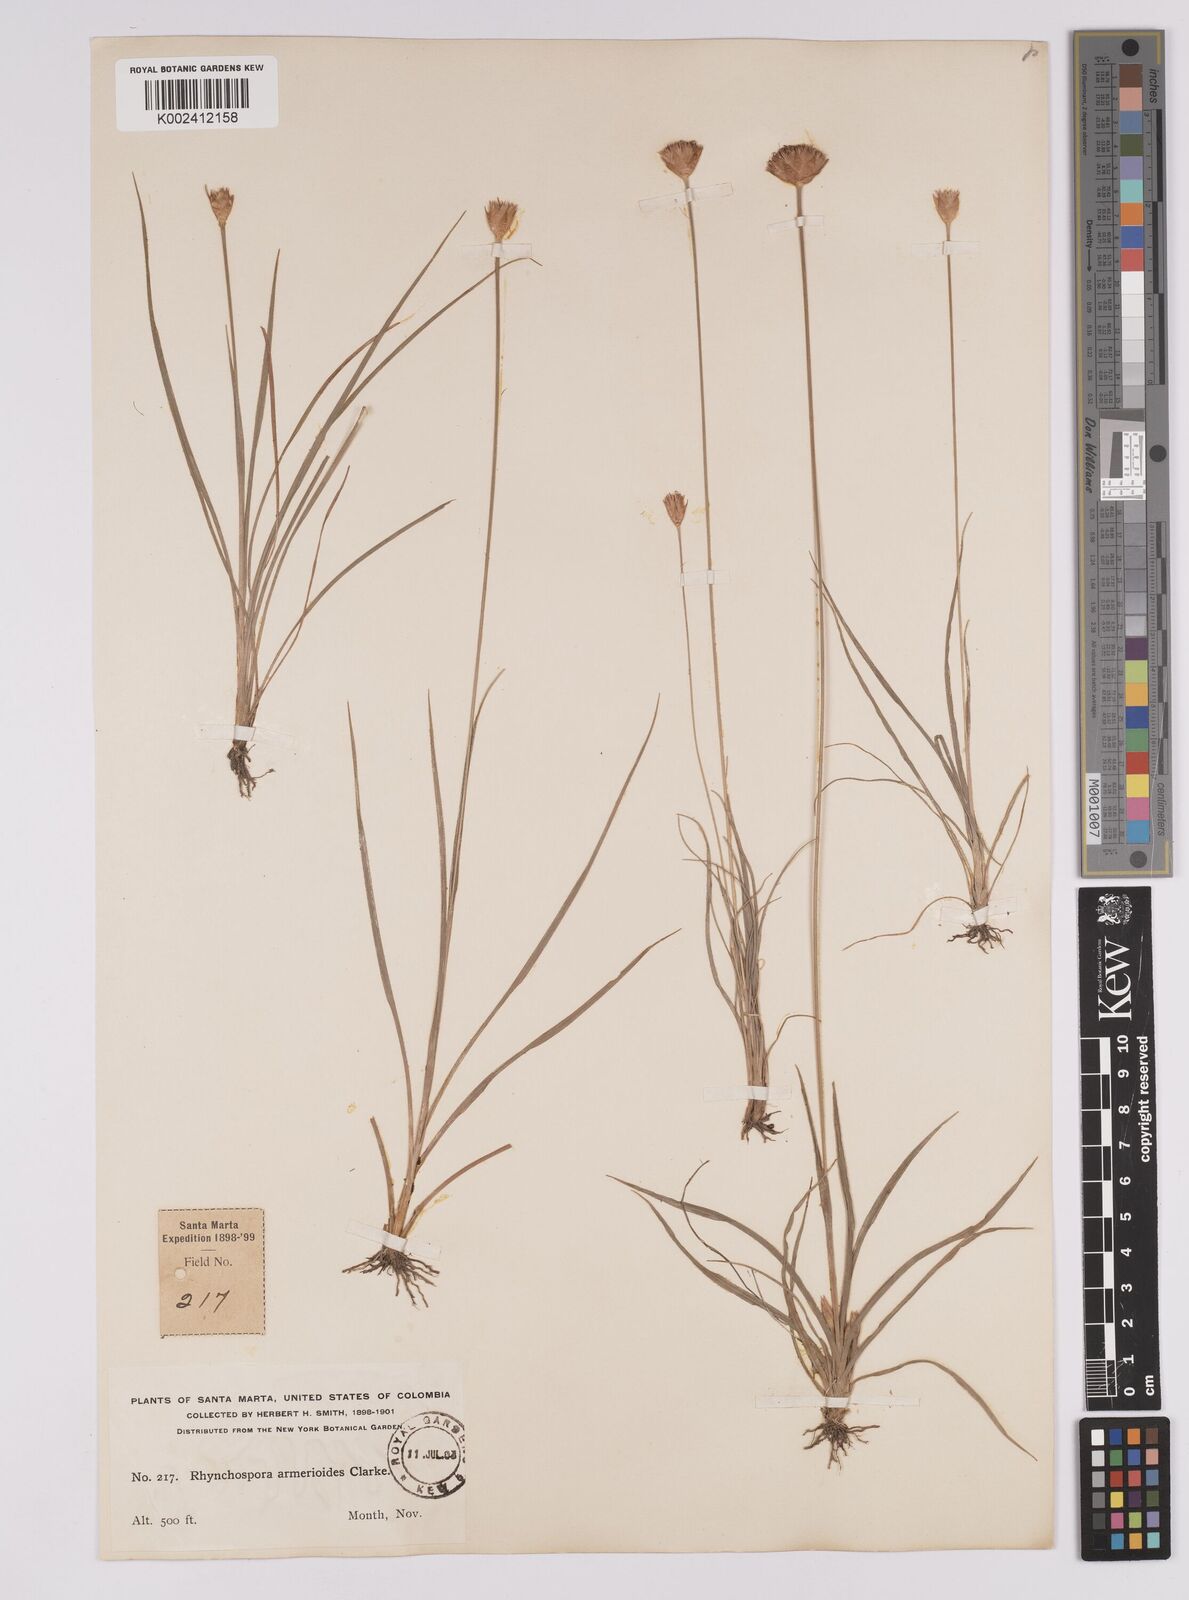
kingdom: Plantae
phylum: Tracheophyta
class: Liliopsida
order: Poales
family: Cyperaceae
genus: Rhynchospora
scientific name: Rhynchospora armerioides
